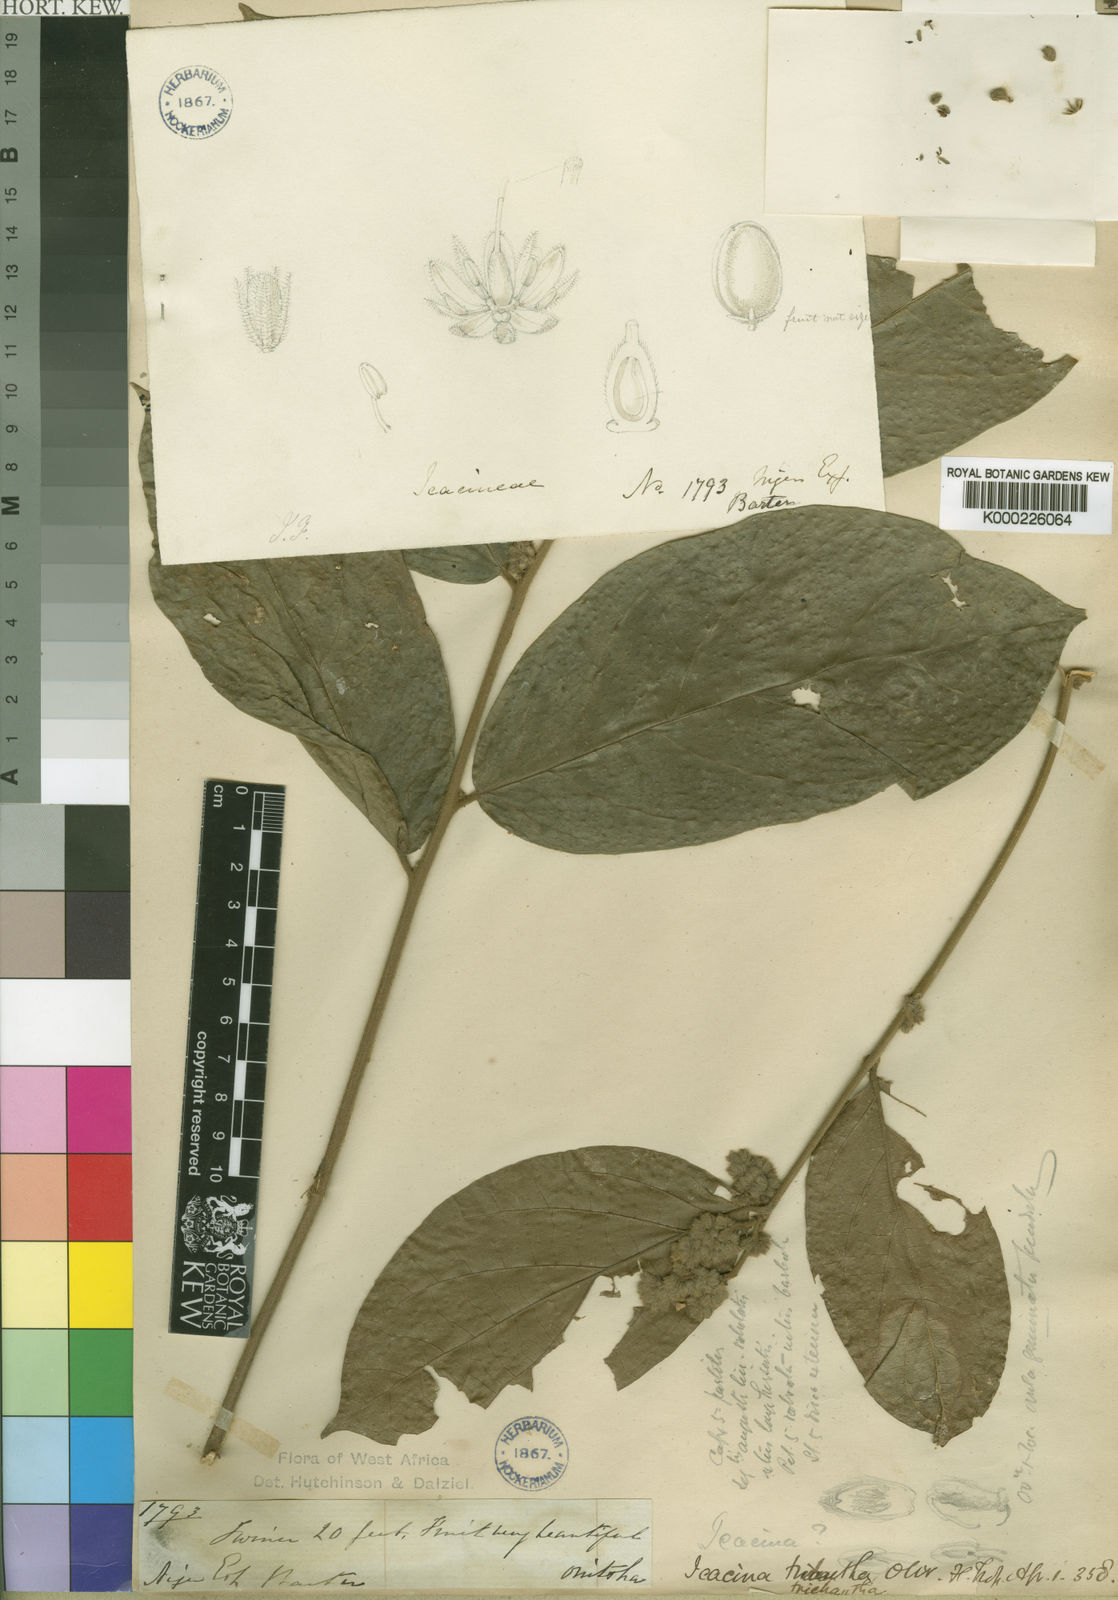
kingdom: Plantae
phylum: Tracheophyta
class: Magnoliopsida
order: Icacinales
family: Icacinaceae
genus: Icacina
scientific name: Icacina trichantha
